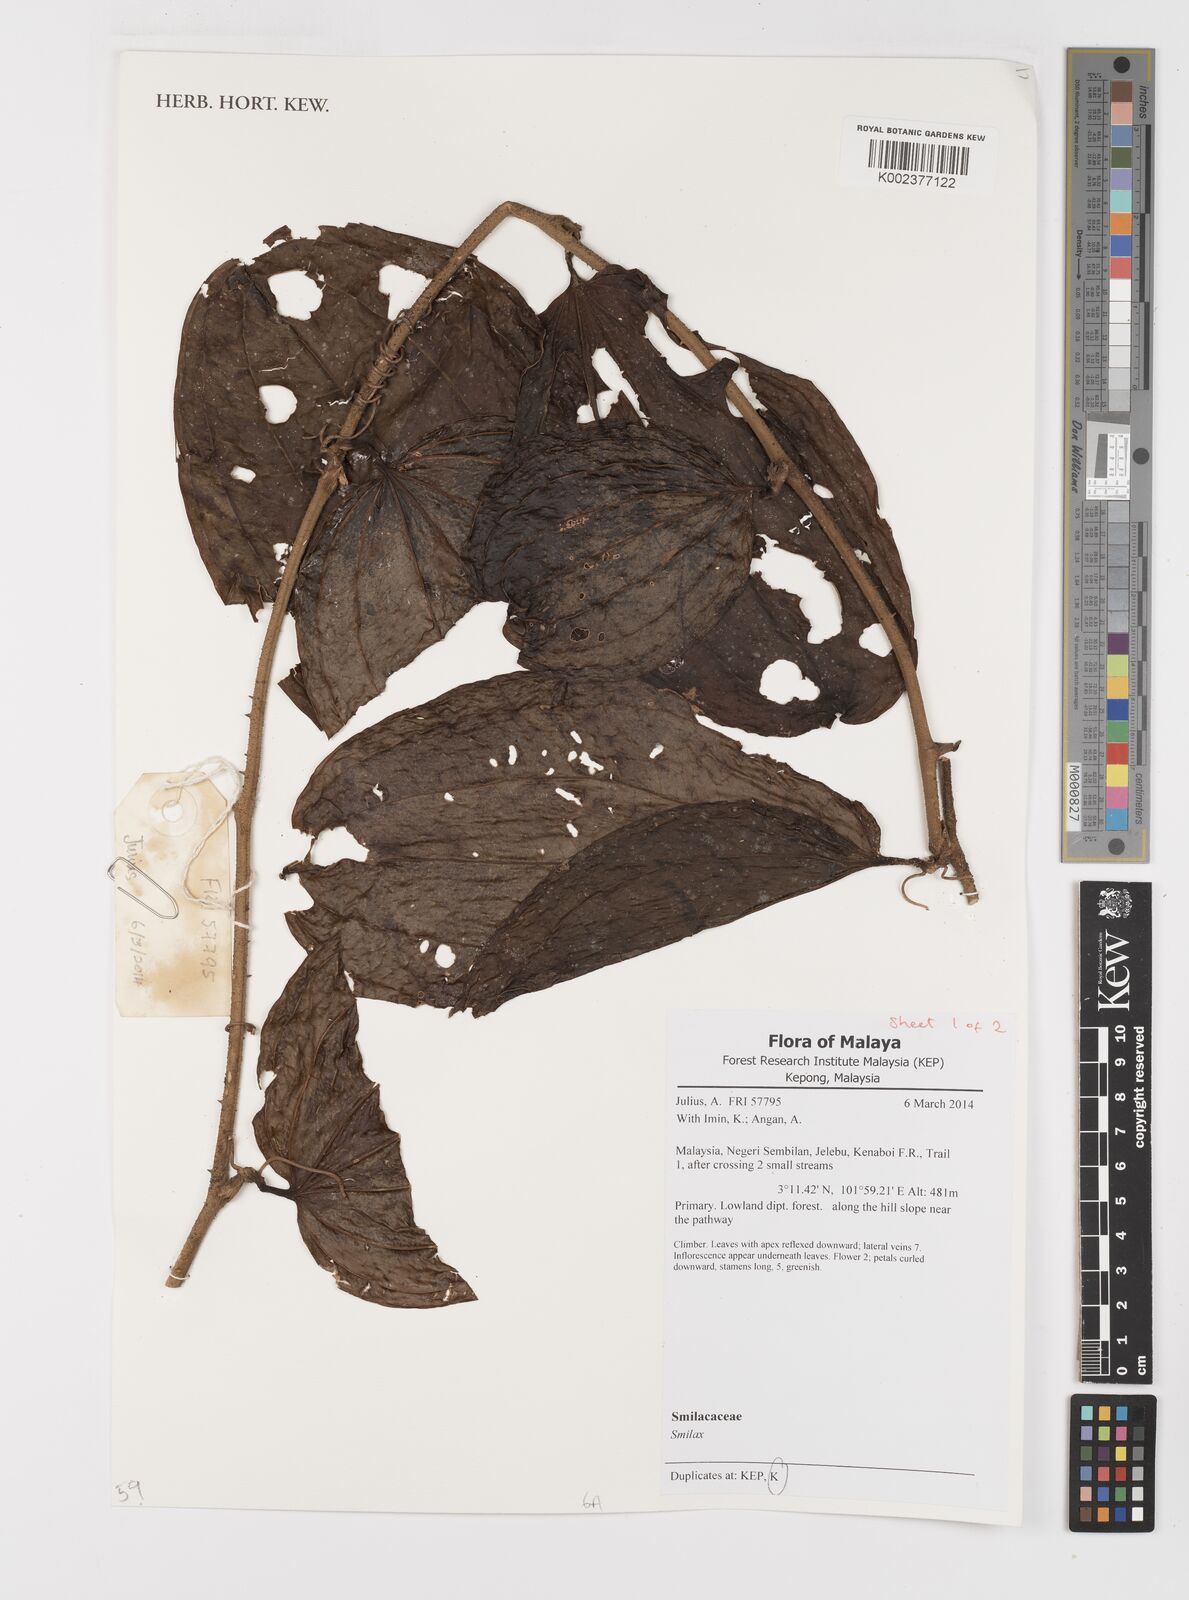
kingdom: Plantae
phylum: Tracheophyta
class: Liliopsida
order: Liliales
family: Smilacaceae
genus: Smilax
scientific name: Smilax
